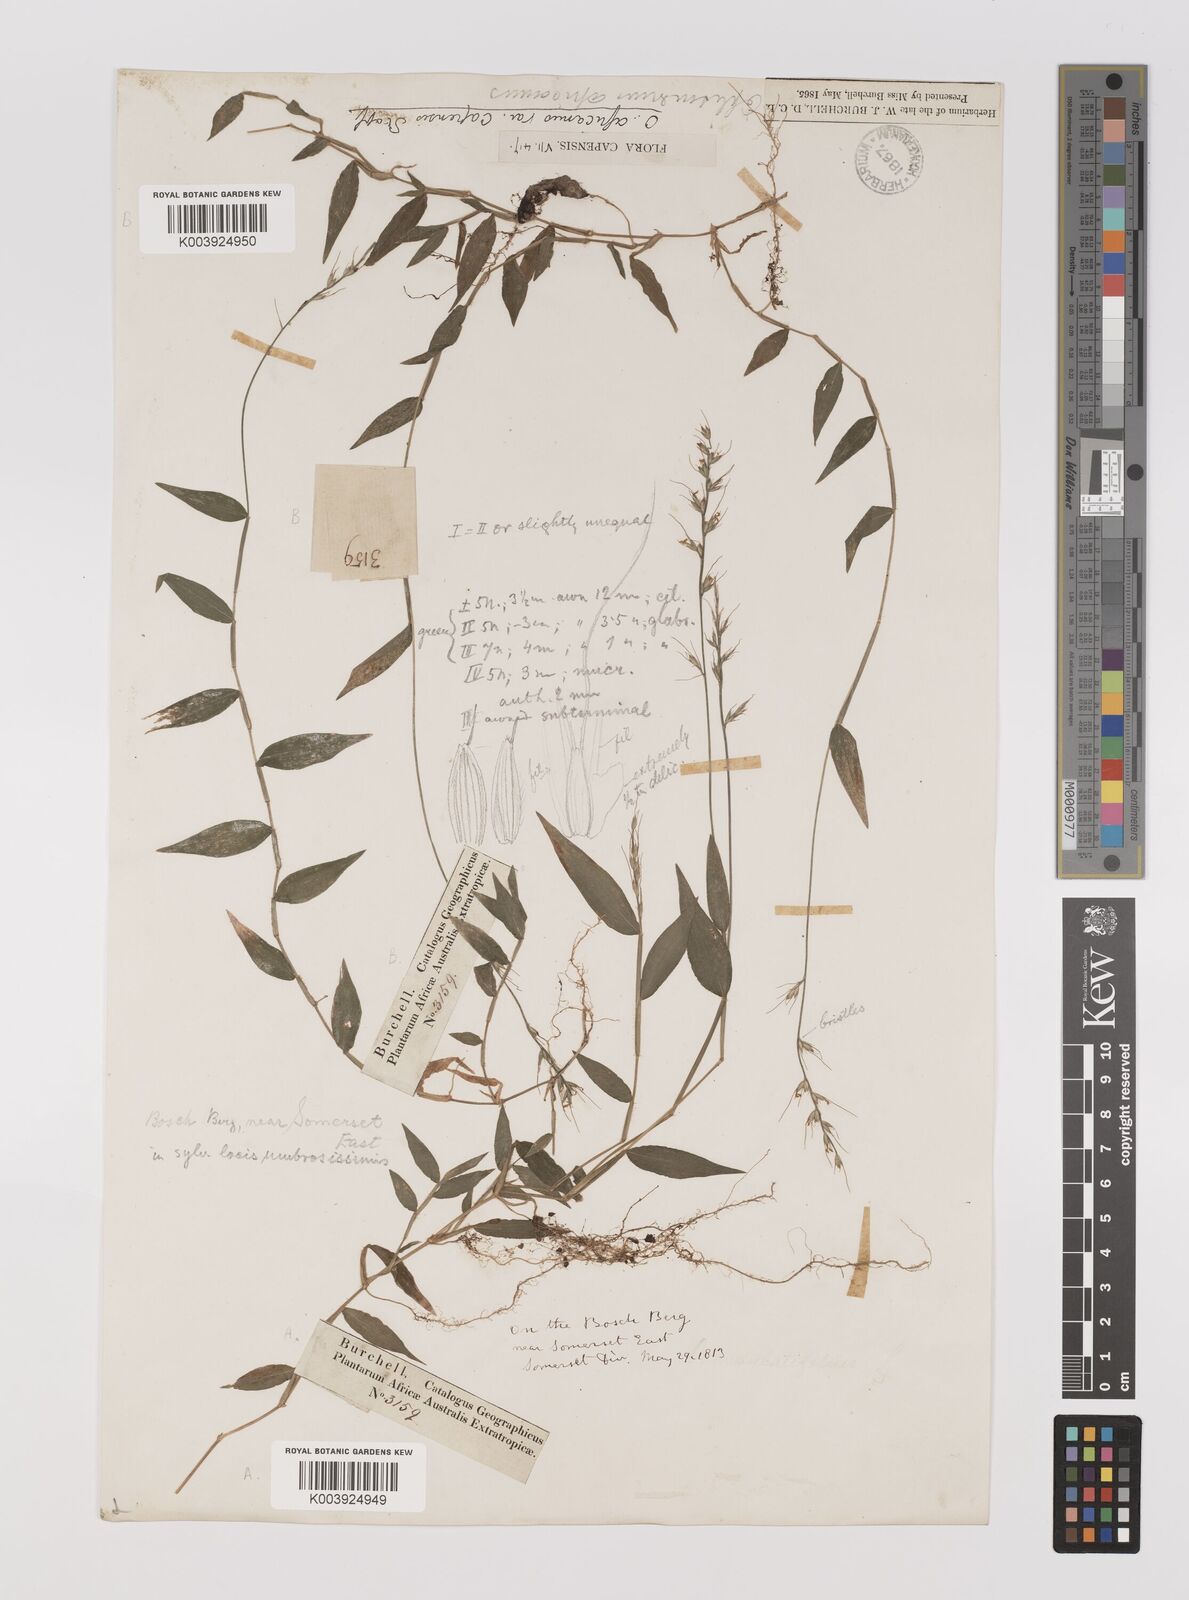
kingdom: Plantae
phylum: Tracheophyta
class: Liliopsida
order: Poales
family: Poaceae
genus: Oplismenus
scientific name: Oplismenus undulatifolius
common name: Wavyleaf basketgrass
